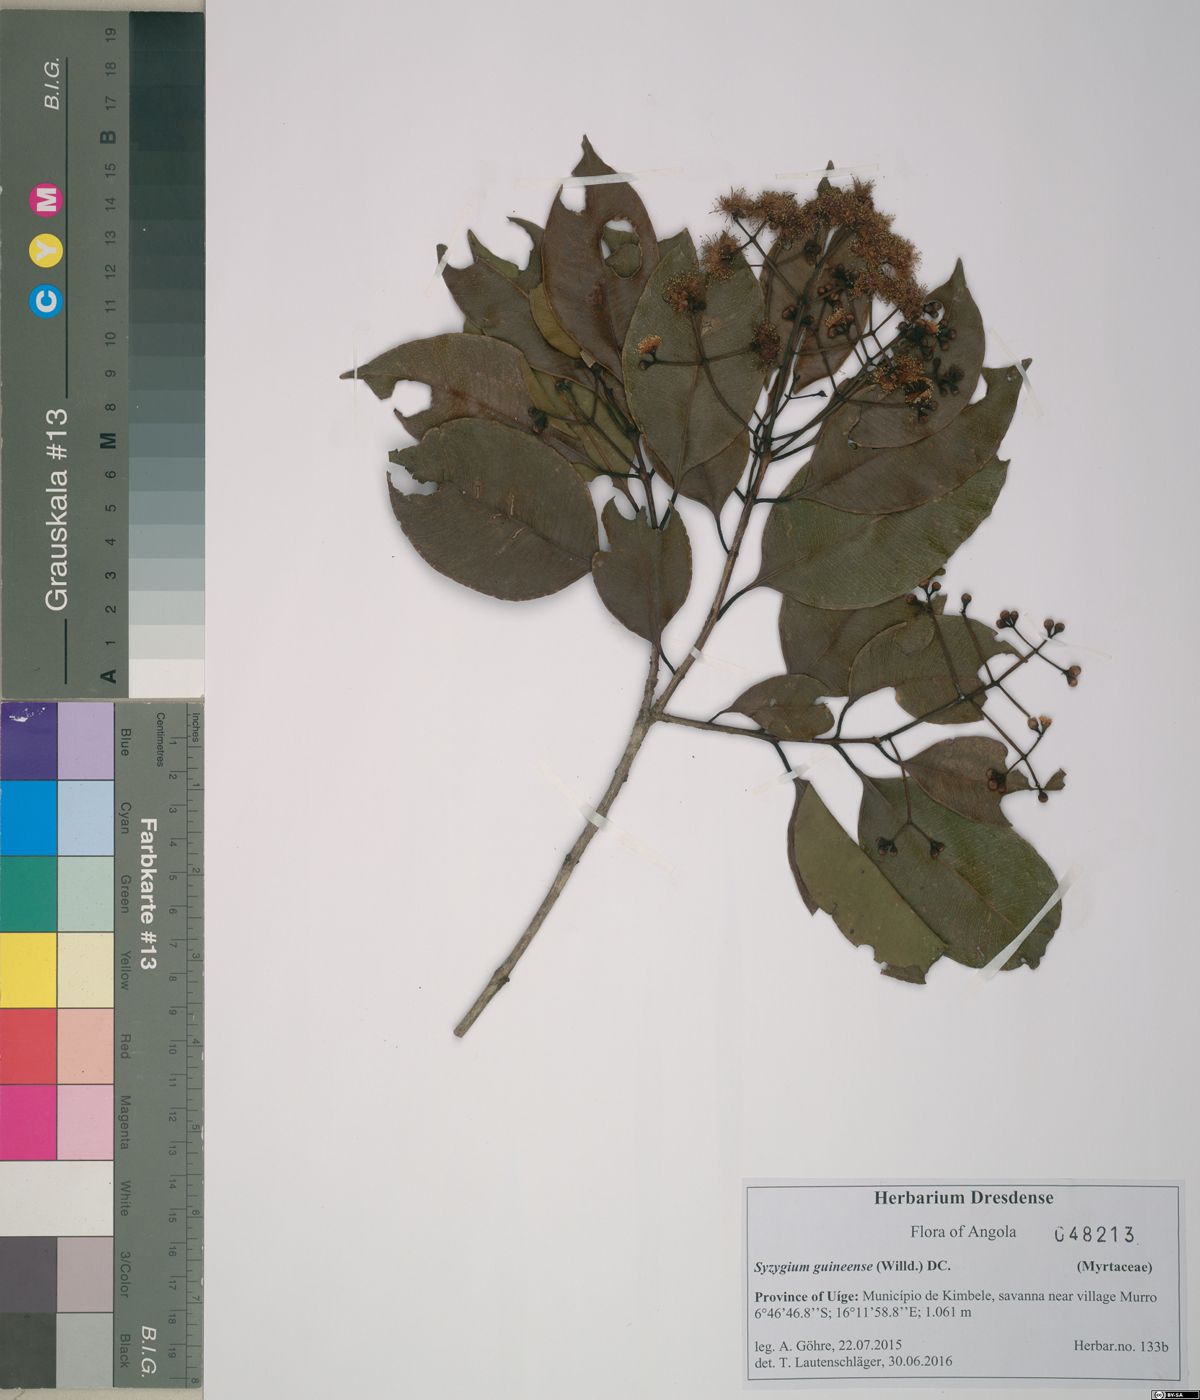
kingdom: Plantae
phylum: Tracheophyta
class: Magnoliopsida
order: Myrtales
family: Myrtaceae
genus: Syzygium
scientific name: Syzygium guineense
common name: Water-pear
